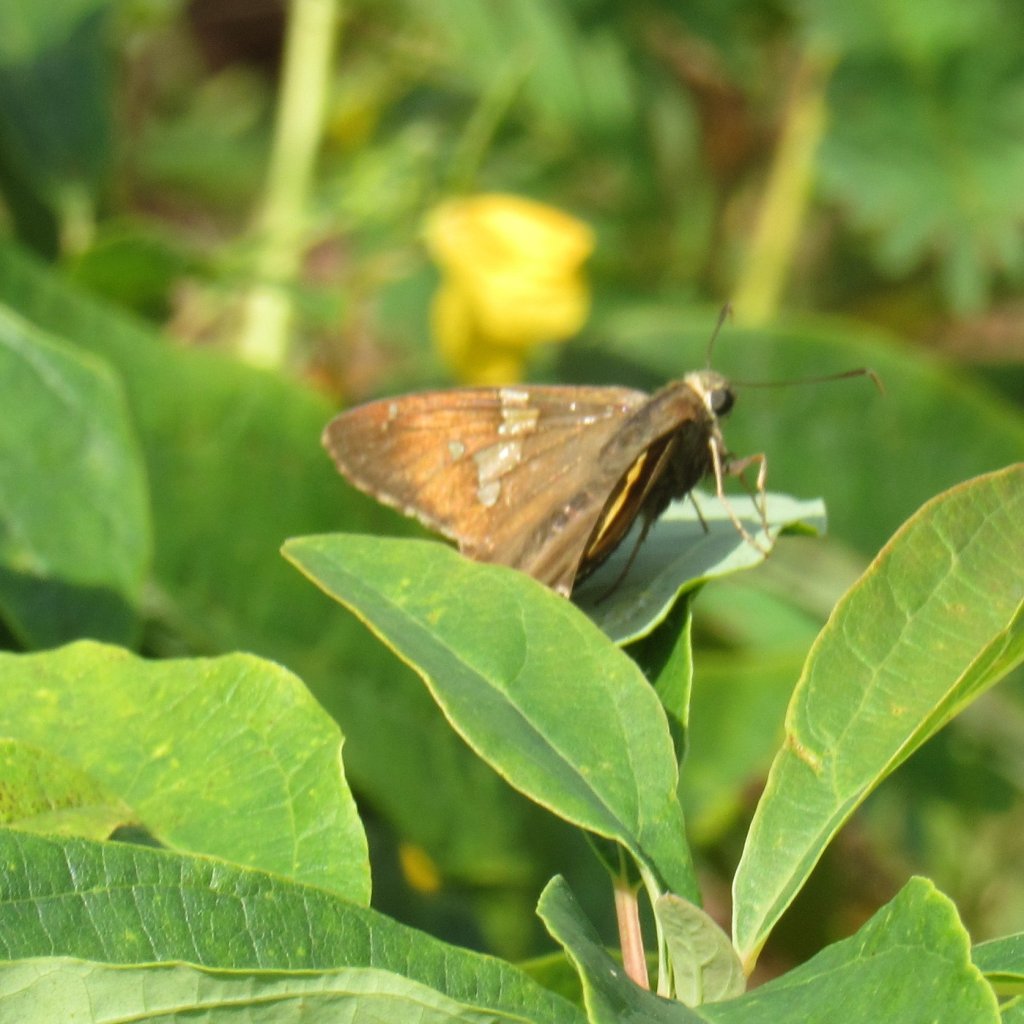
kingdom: Animalia
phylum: Arthropoda
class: Insecta
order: Lepidoptera
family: Hesperiidae
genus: Epargyreus
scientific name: Epargyreus clarus
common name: Silver-spotted Skipper
